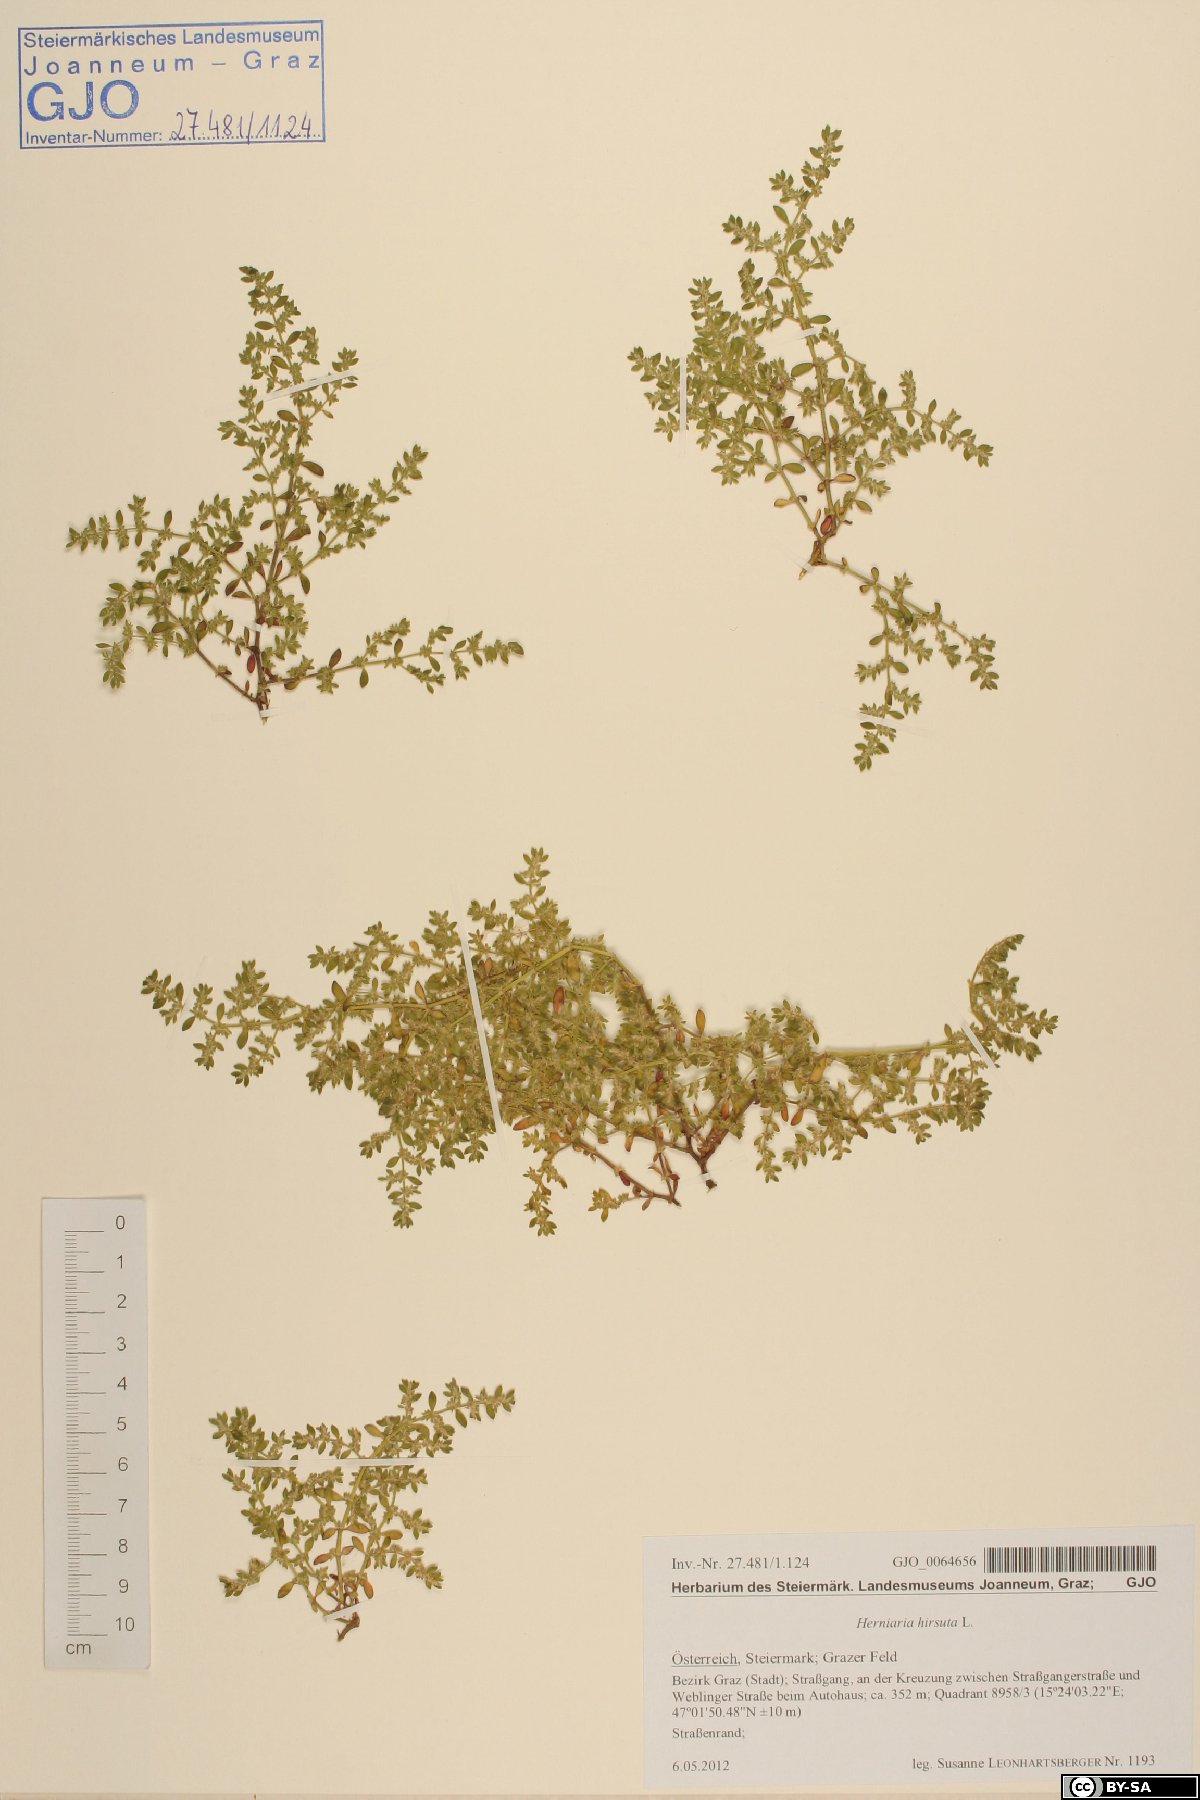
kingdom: Plantae
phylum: Tracheophyta
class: Magnoliopsida
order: Caryophyllales
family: Caryophyllaceae
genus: Herniaria
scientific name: Herniaria hirsuta
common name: Hairy rupturewort
